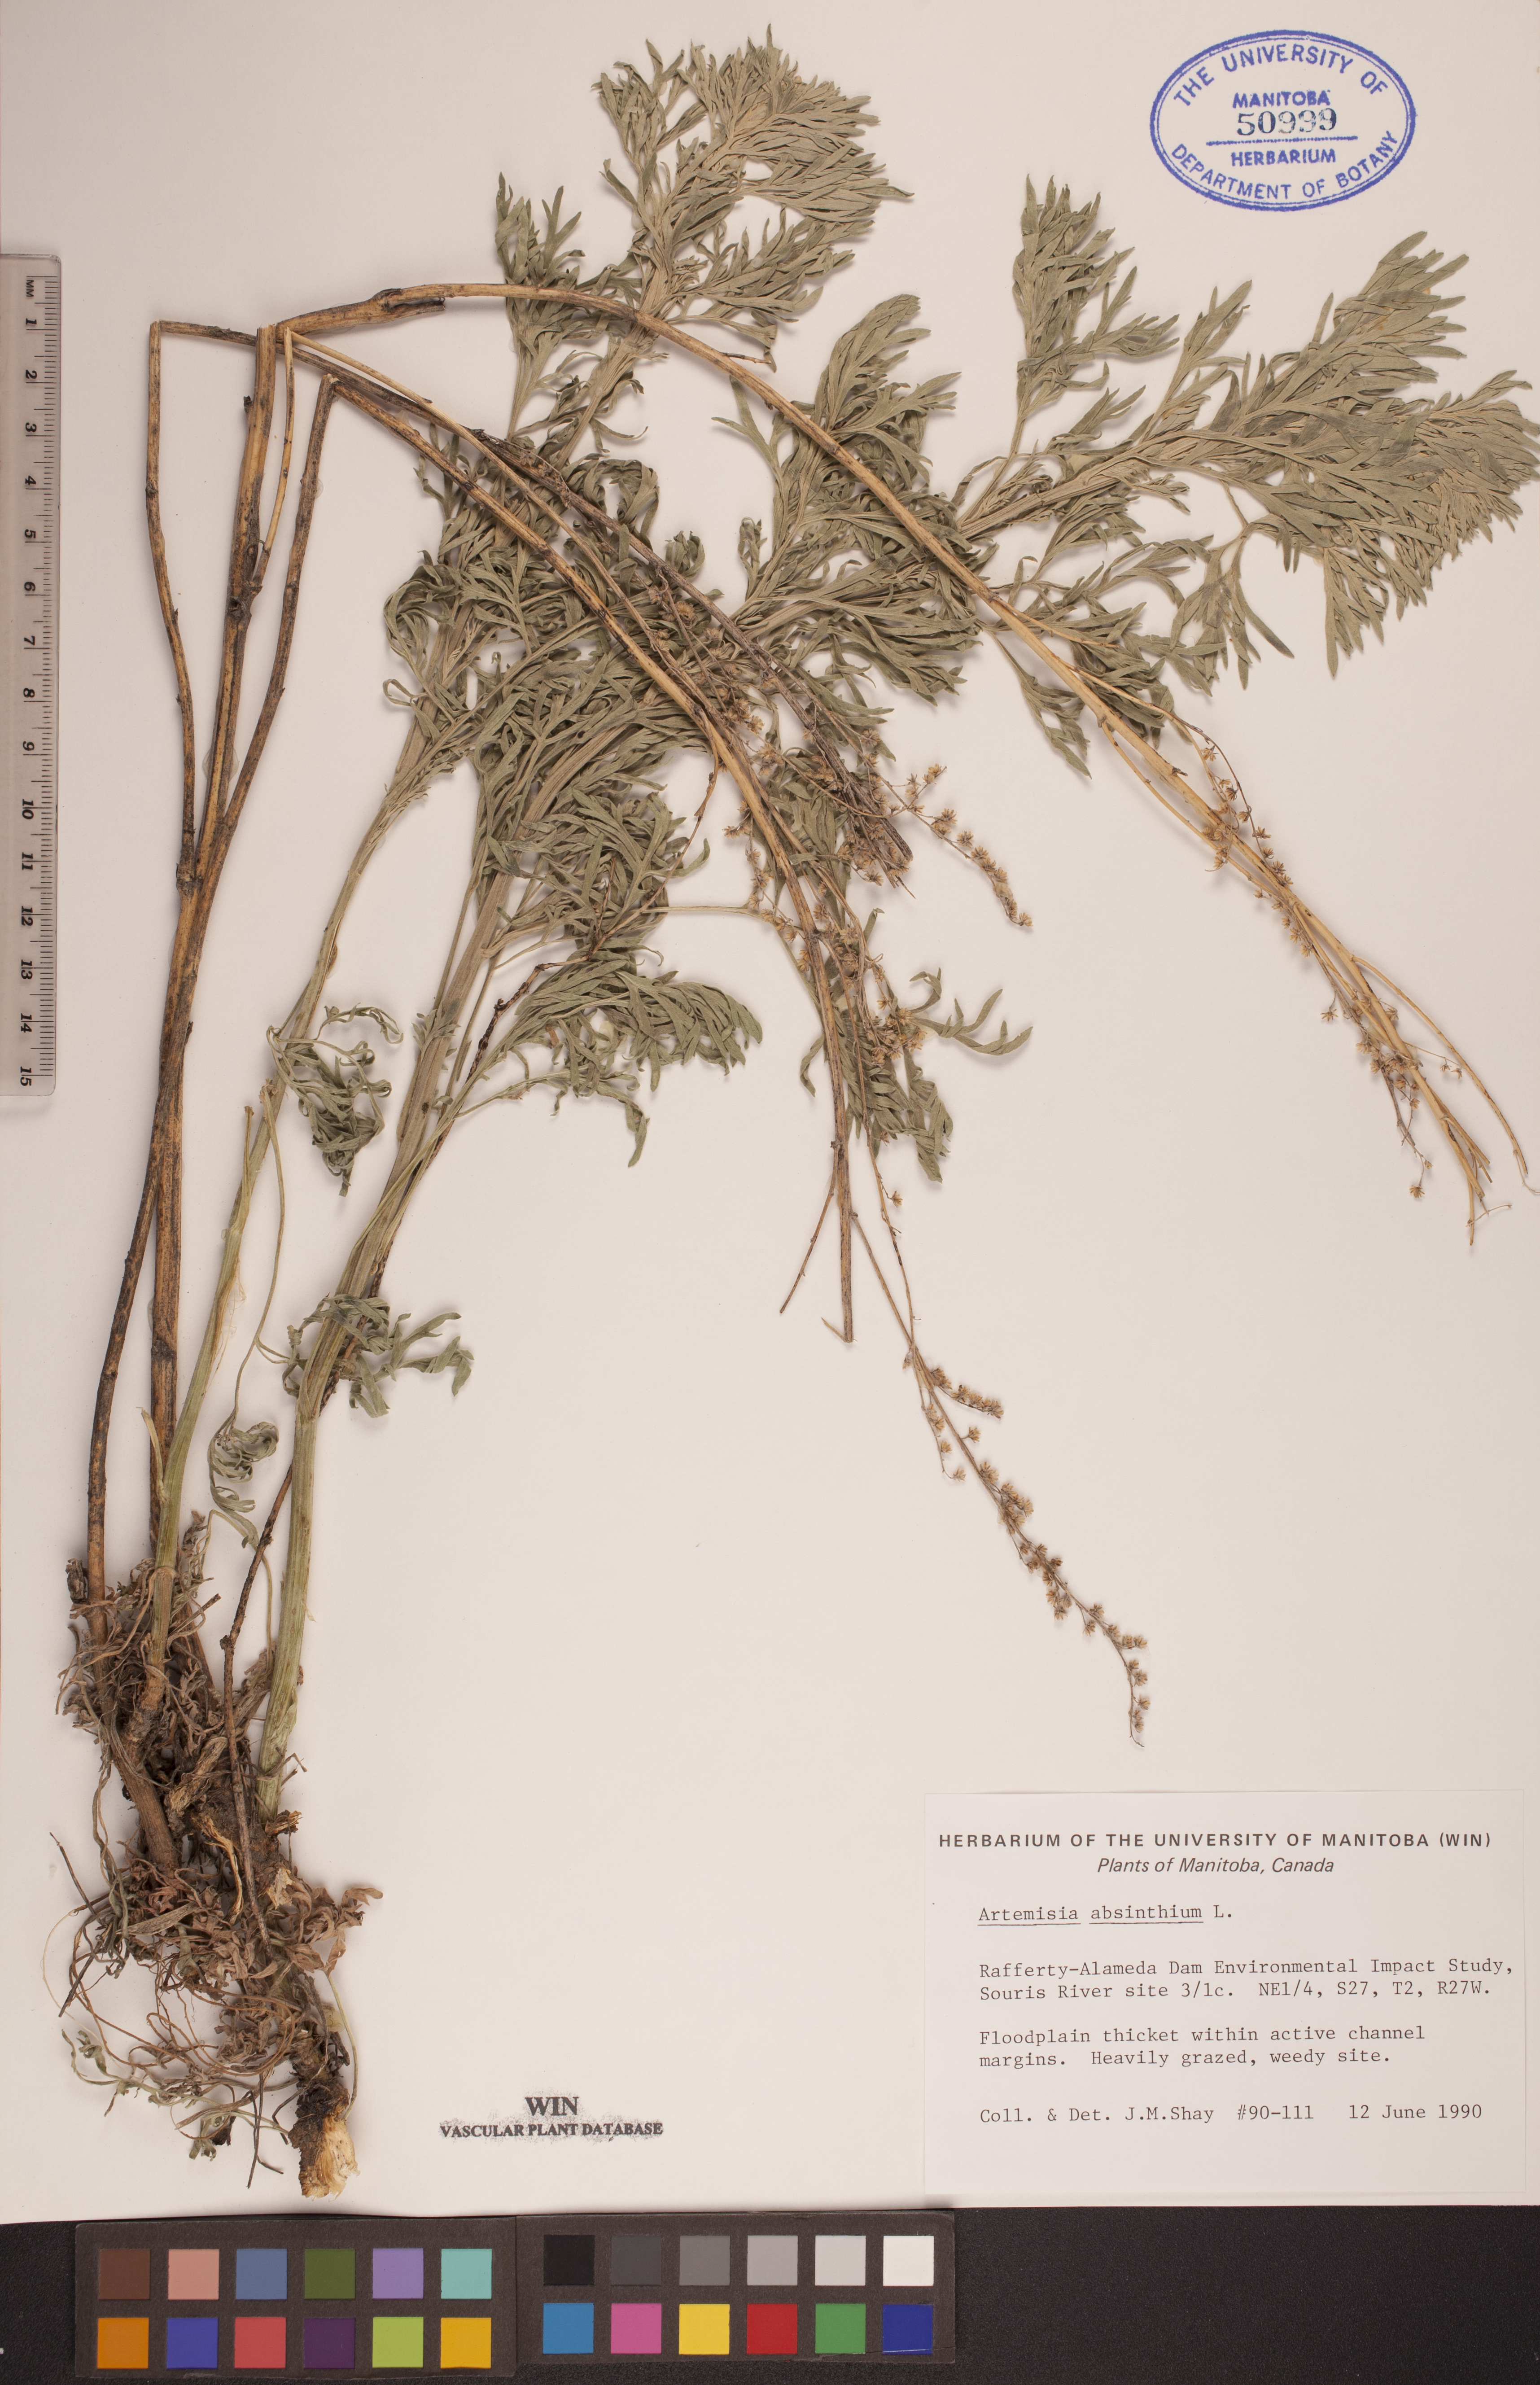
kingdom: Plantae
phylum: Tracheophyta
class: Magnoliopsida
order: Asterales
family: Asteraceae
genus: Artemisia
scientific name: Artemisia absinthium
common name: Wormwood
